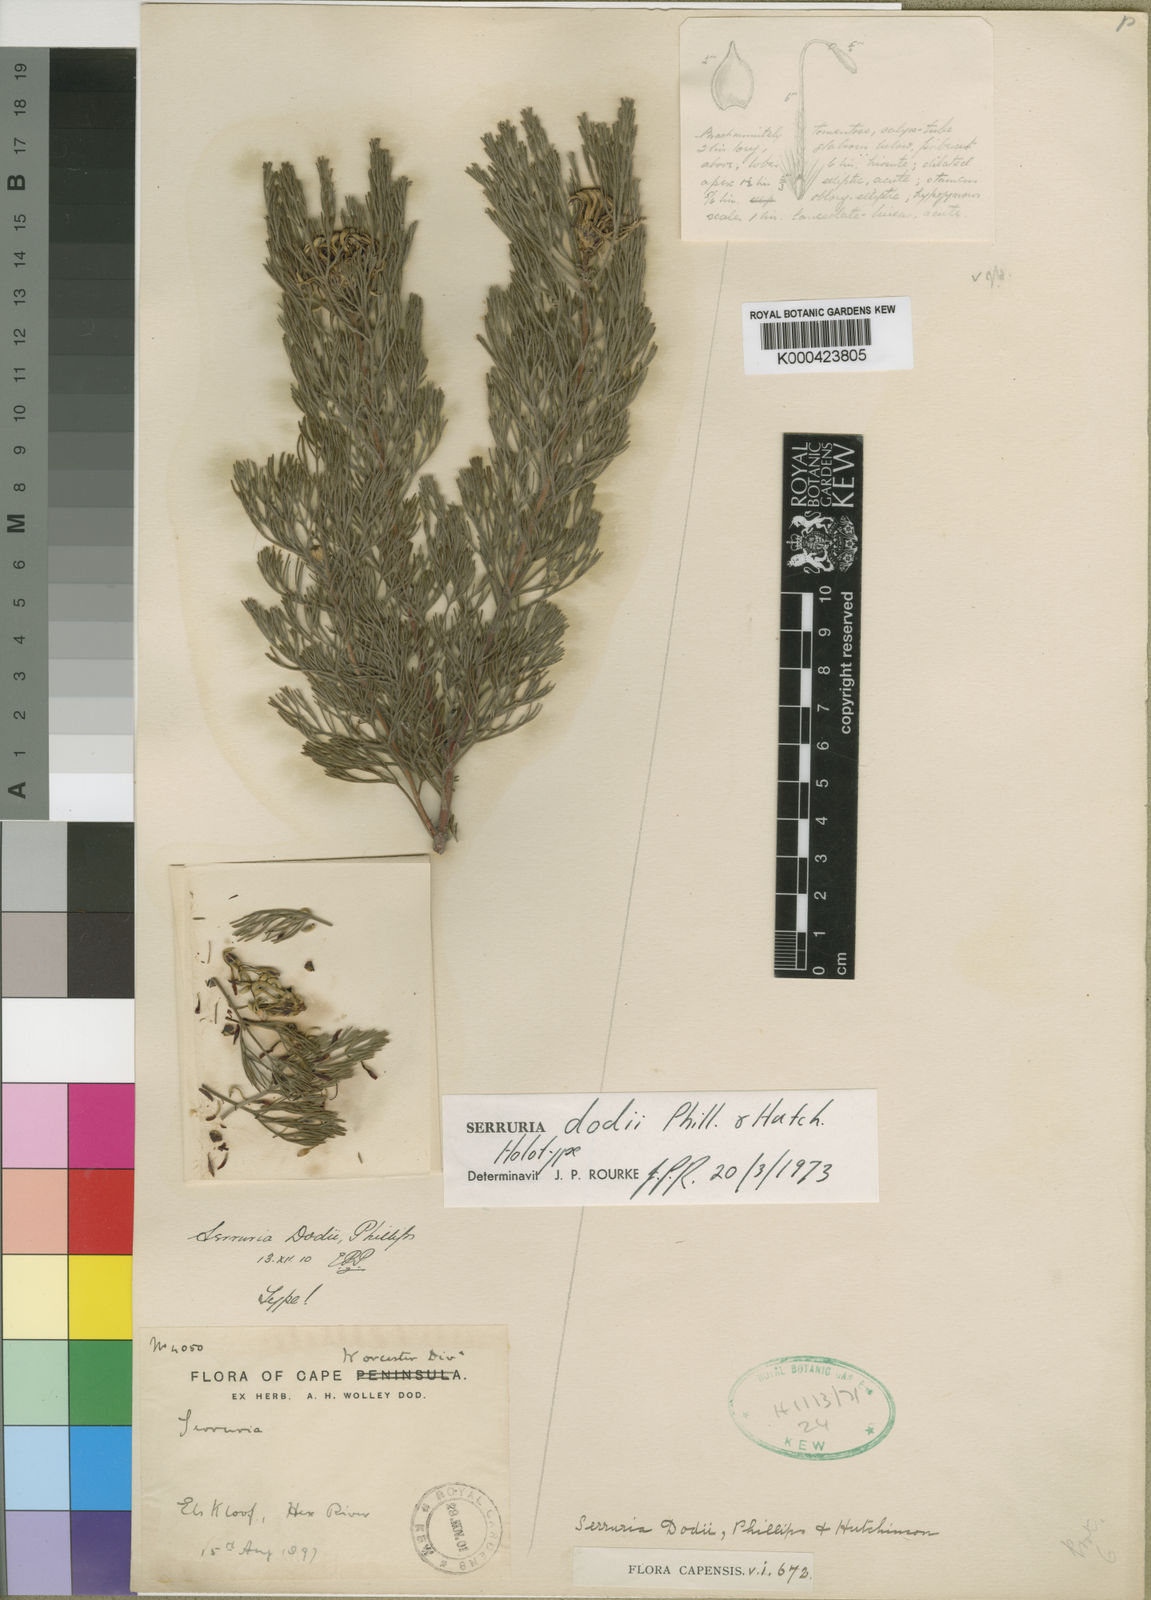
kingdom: Plantae
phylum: Tracheophyta
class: Magnoliopsida
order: Proteales
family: Proteaceae
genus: Serruria
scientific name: Serruria dodii
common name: Hex river spiderhead
